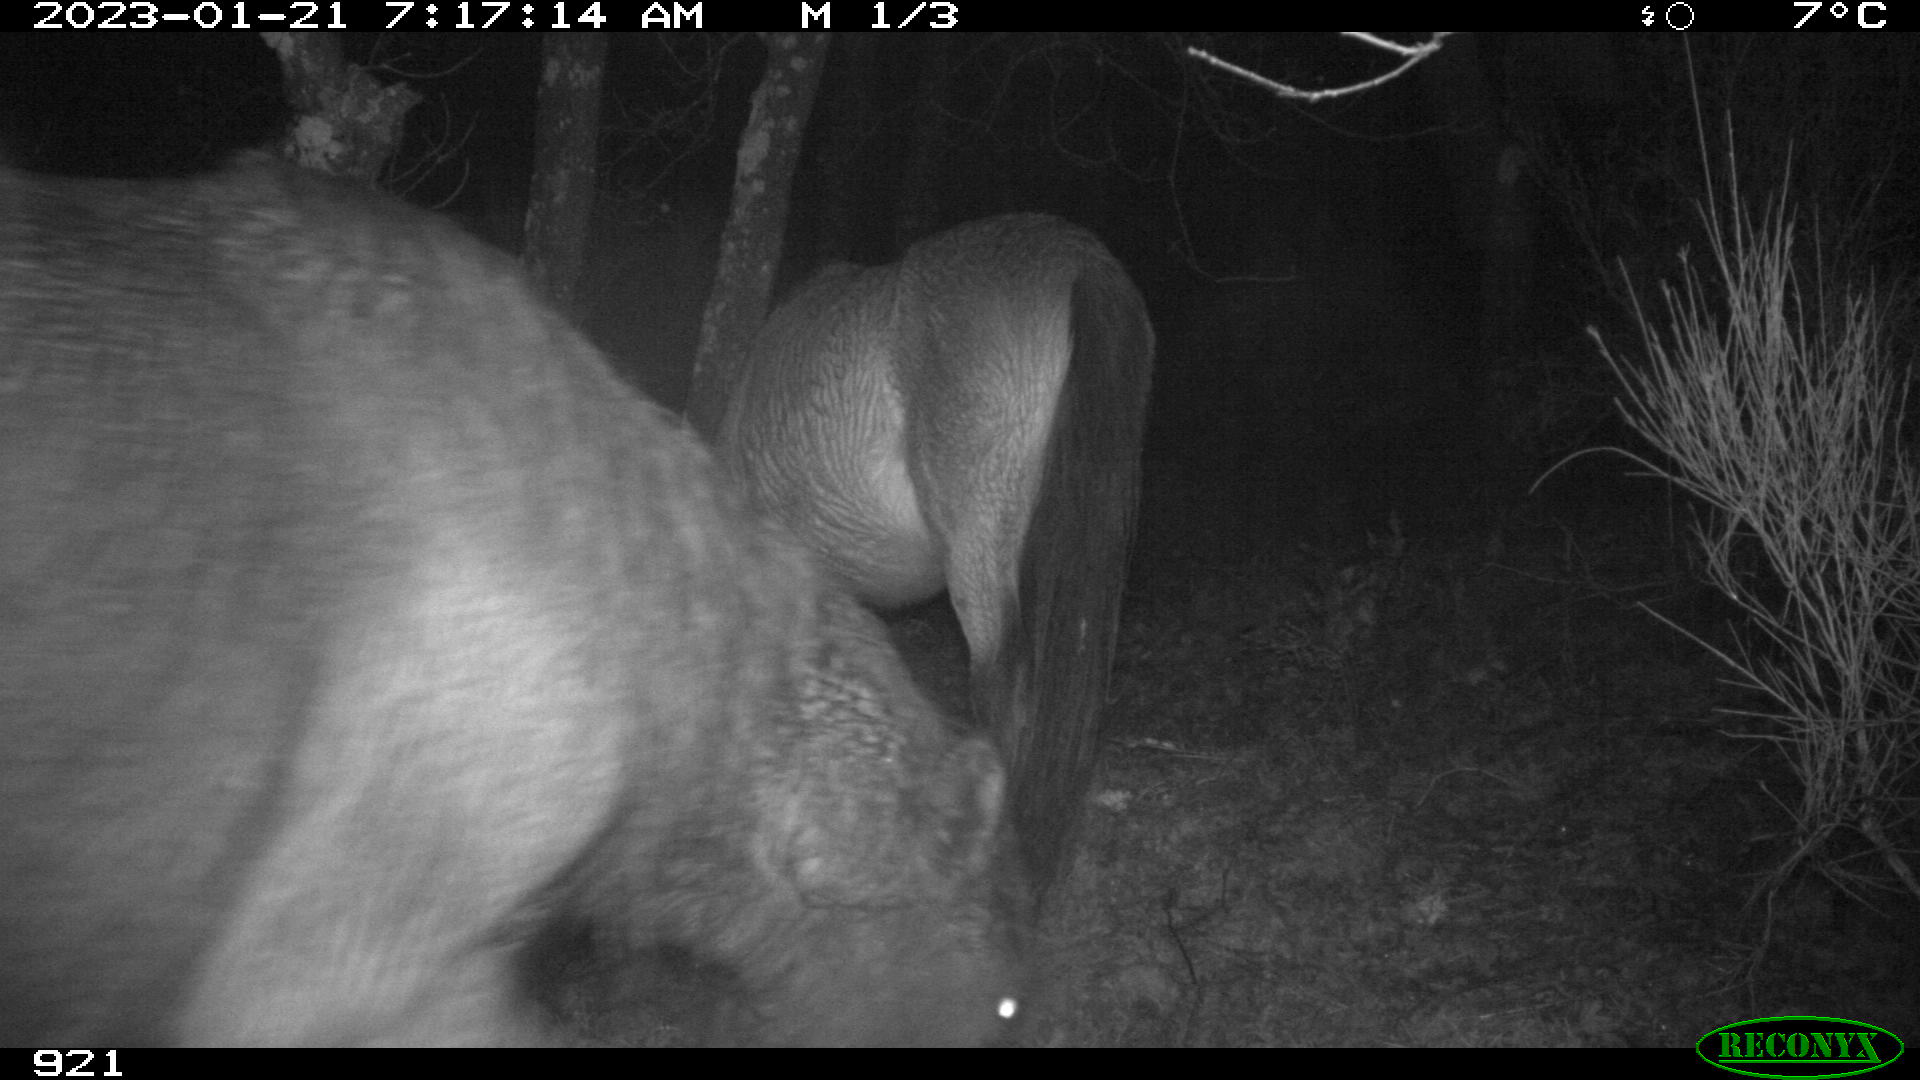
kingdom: Animalia
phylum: Chordata
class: Mammalia
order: Perissodactyla
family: Equidae
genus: Equus
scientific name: Equus caballus
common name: Horse
